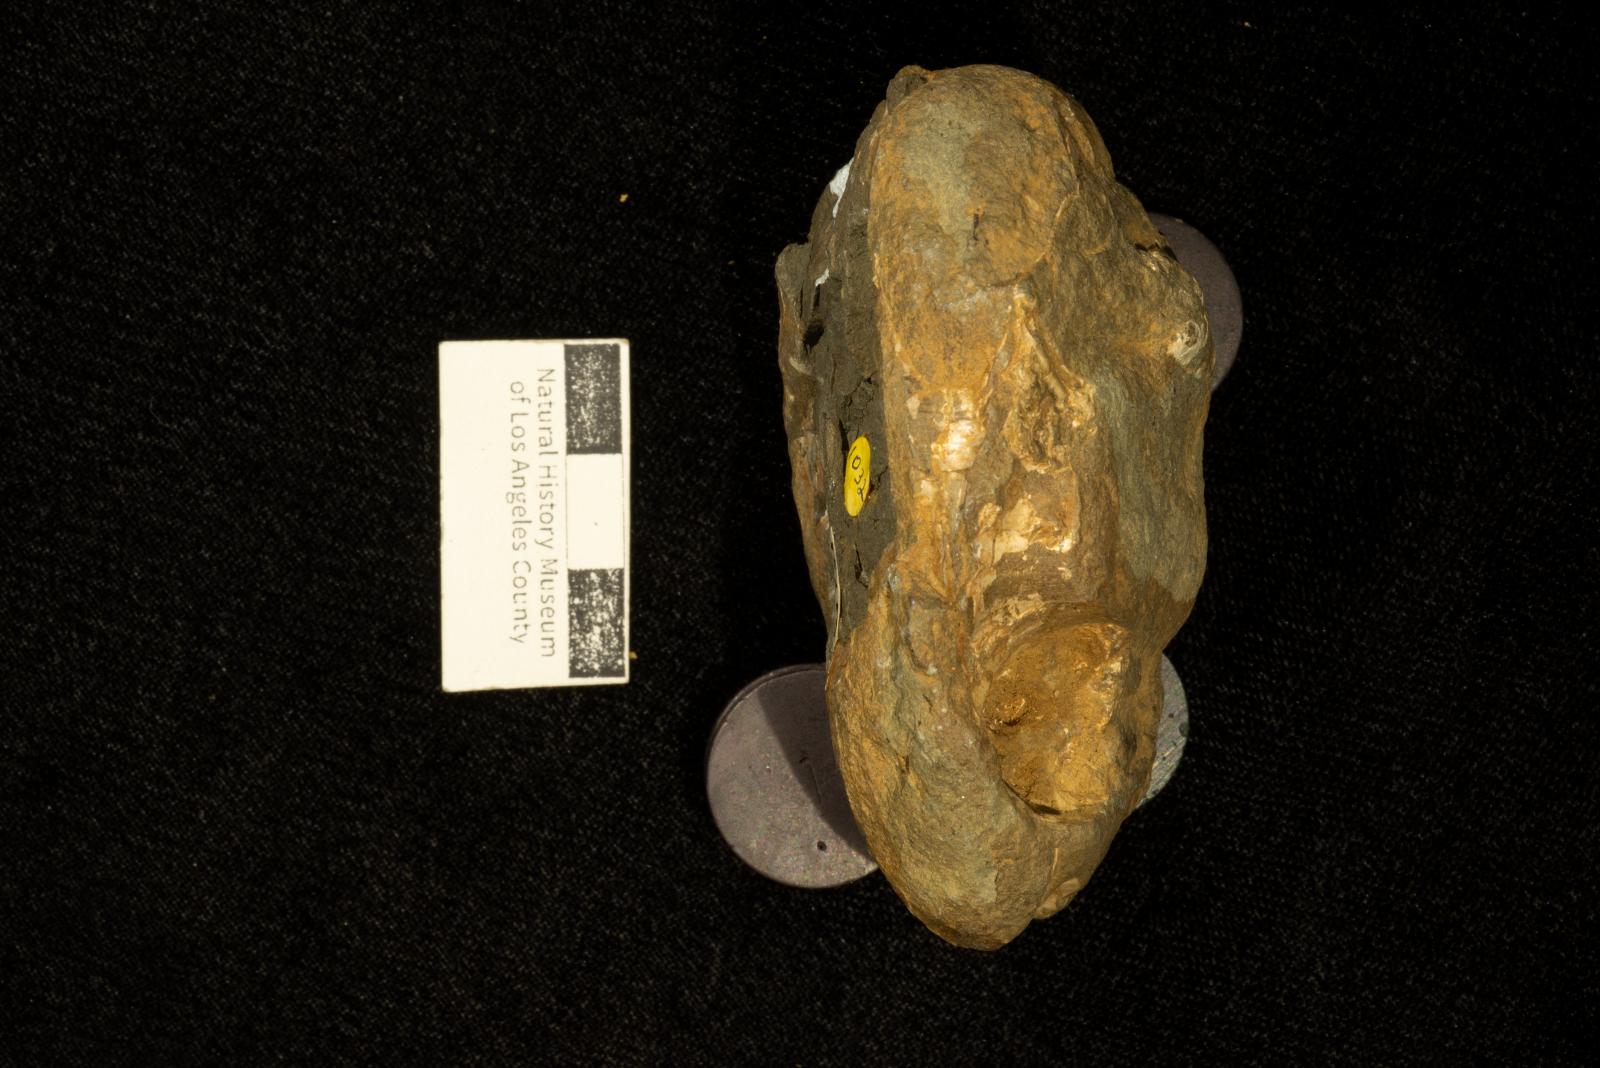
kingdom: Animalia
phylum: Mollusca
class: Cephalopoda
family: Nostoceratidae
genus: Hyphantoceras
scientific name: Hyphantoceras
